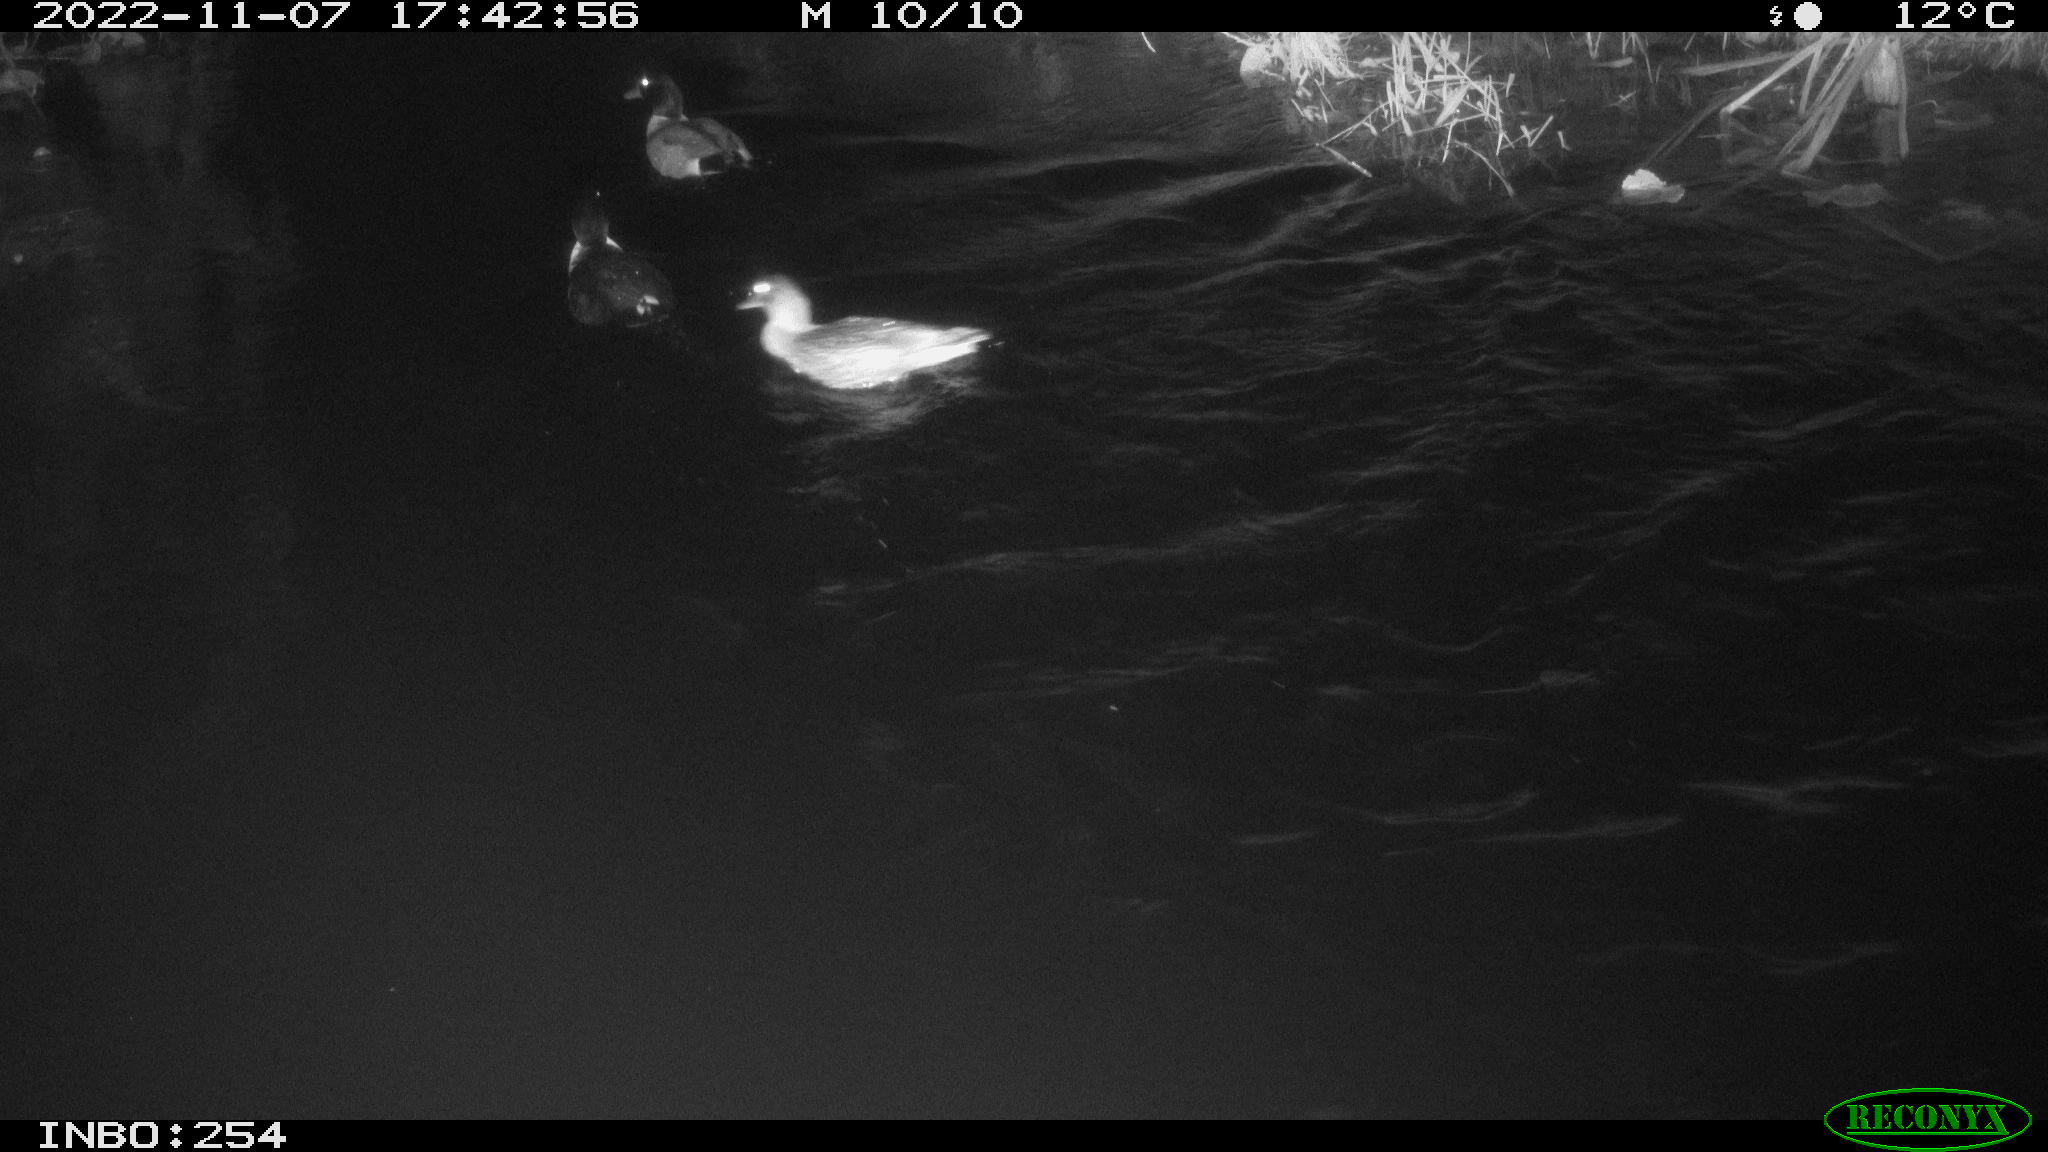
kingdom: Animalia
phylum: Chordata
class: Aves
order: Anseriformes
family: Anatidae
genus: Anas
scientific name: Anas
